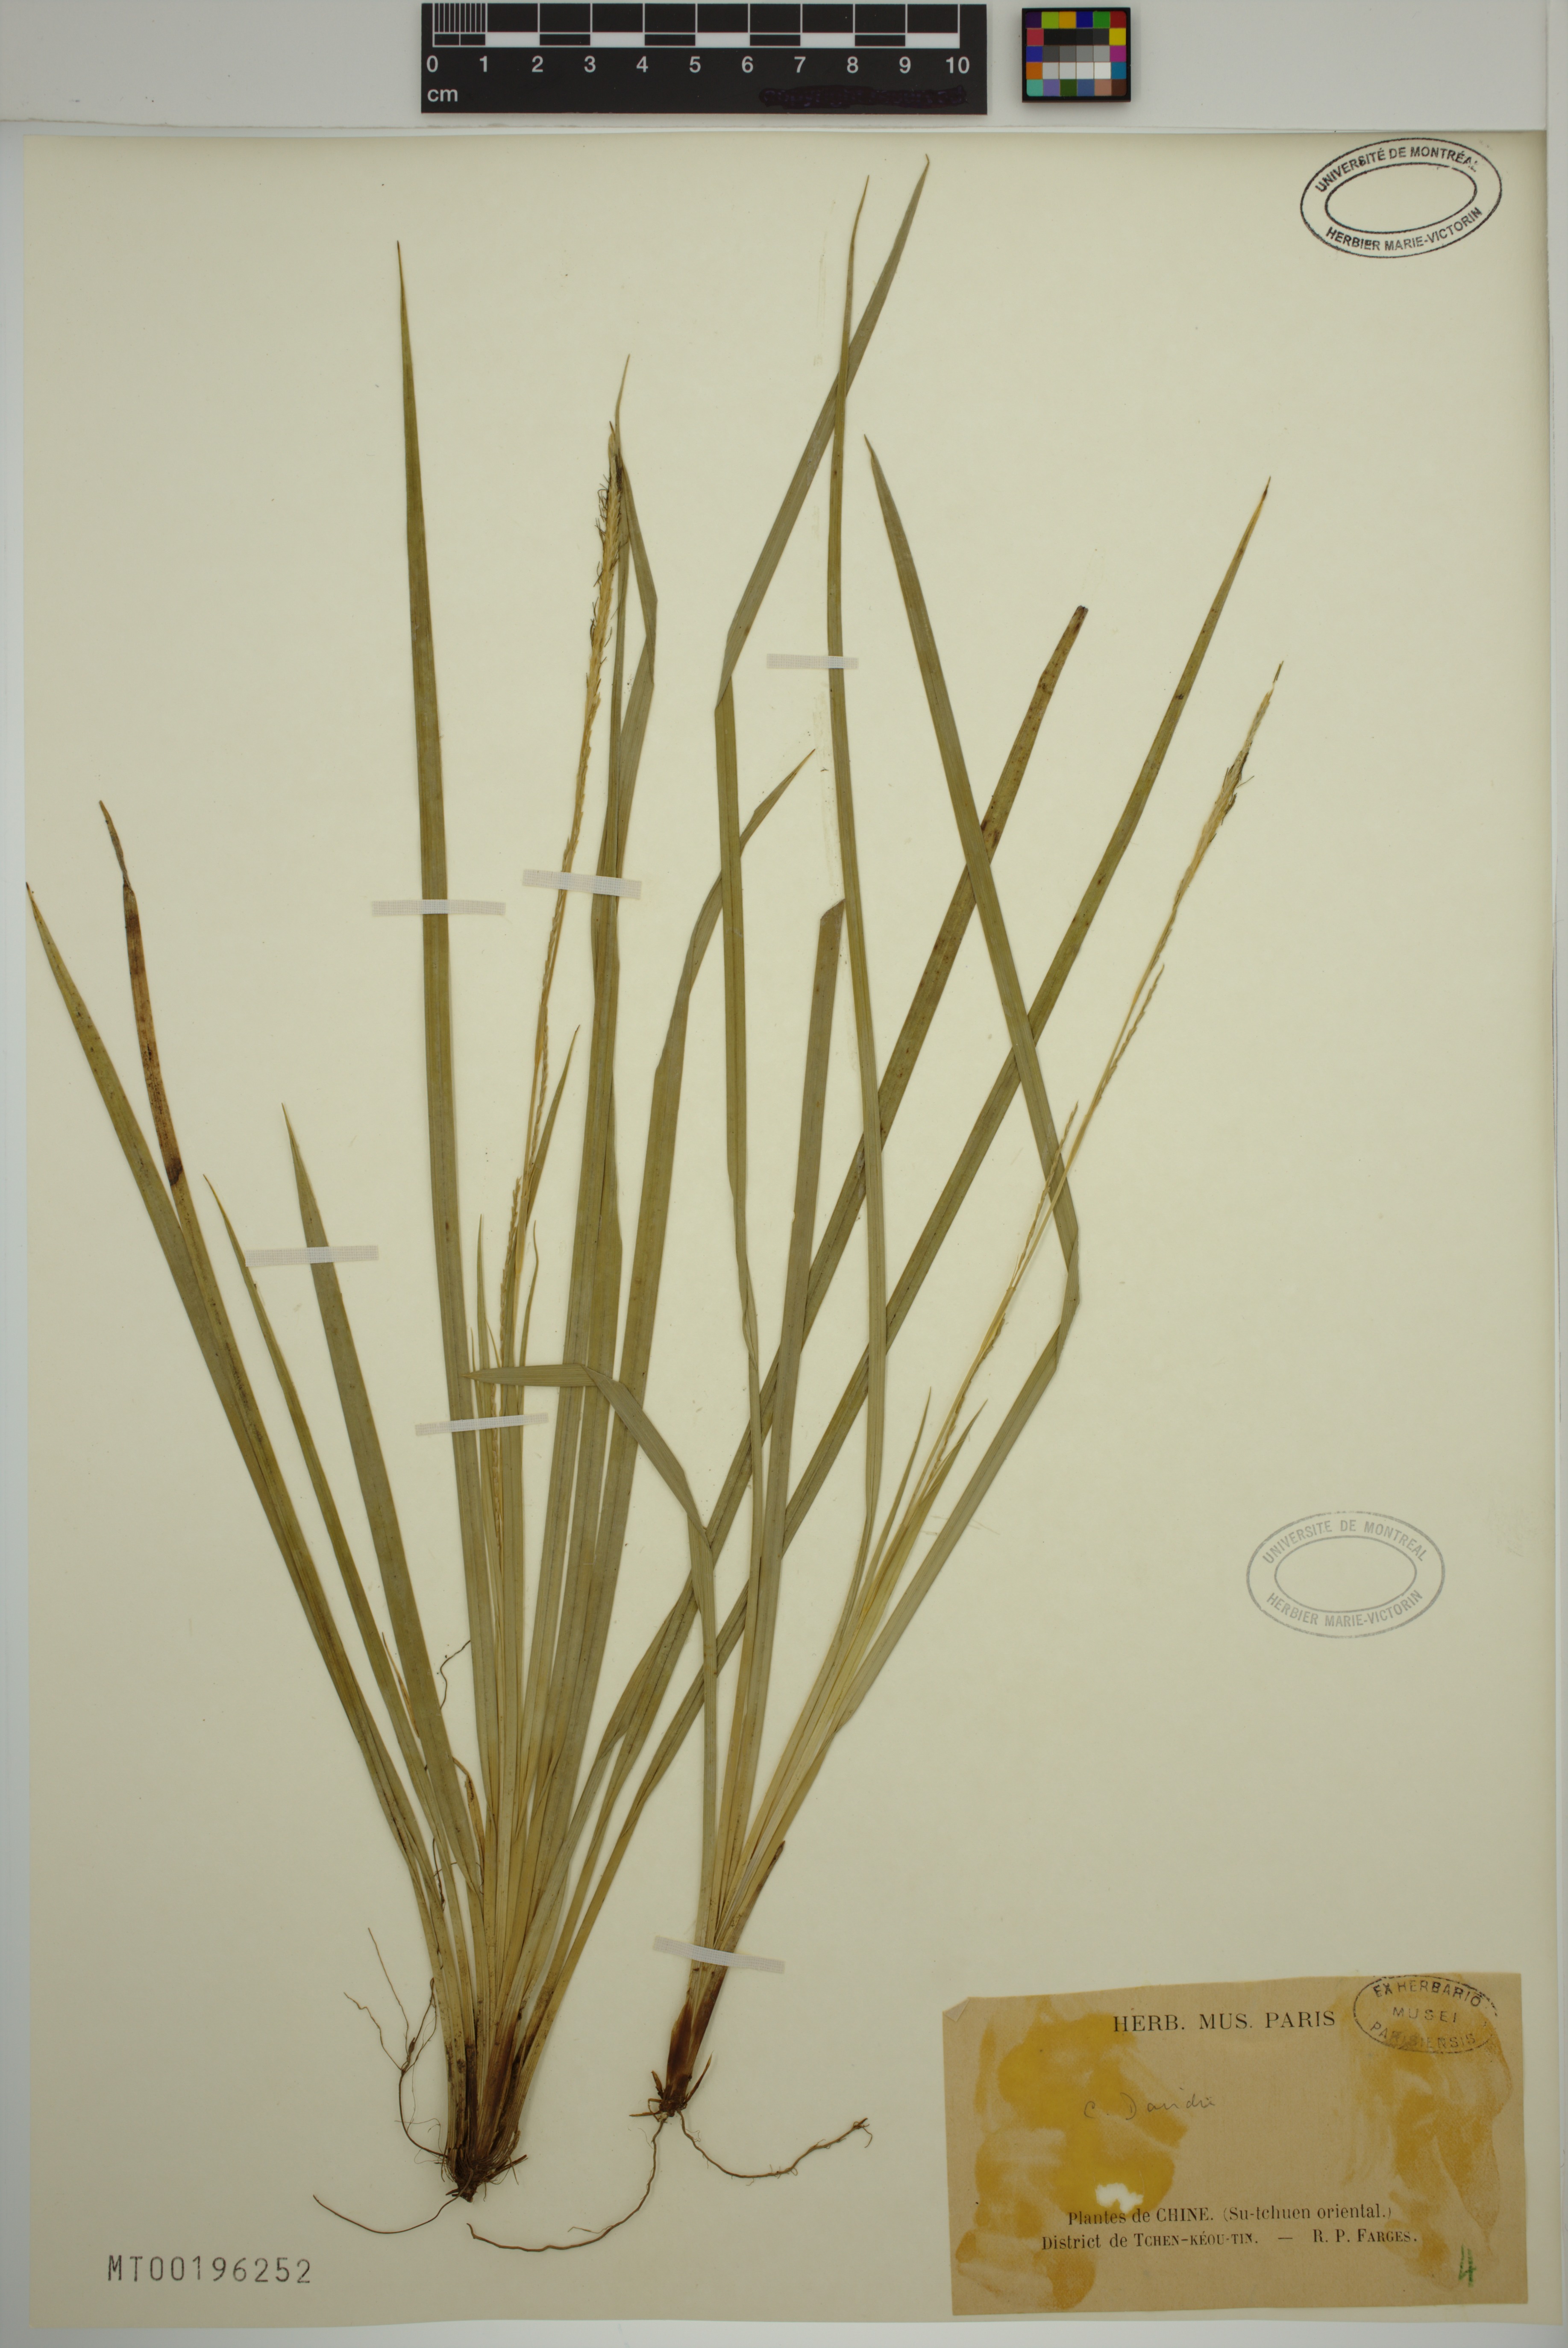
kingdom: Plantae
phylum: Tracheophyta
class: Liliopsida
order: Poales
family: Cyperaceae
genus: Carex
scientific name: Carex davidii
